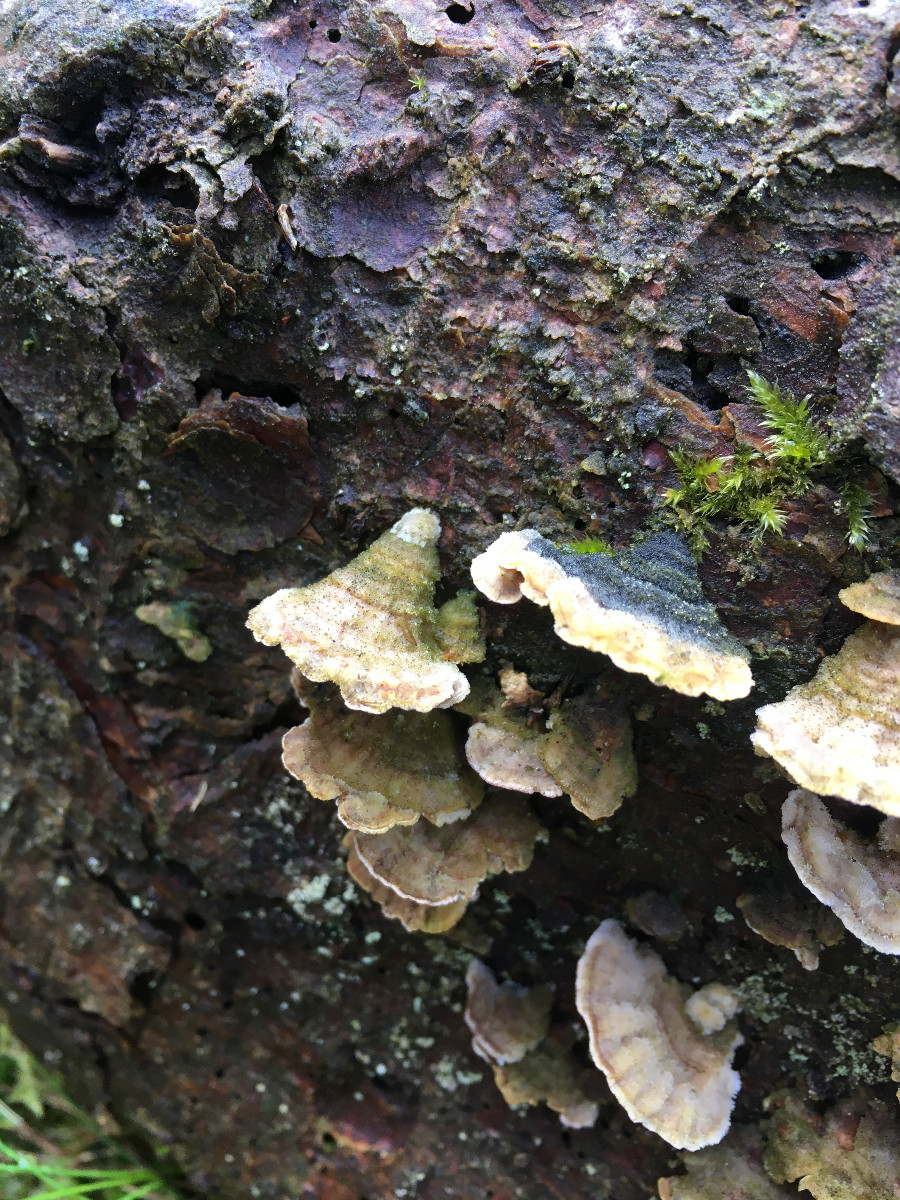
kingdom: Fungi
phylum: Basidiomycota
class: Agaricomycetes
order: Hymenochaetales
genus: Trichaptum
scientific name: Trichaptum abietinum
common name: almindelig violporesvamp
